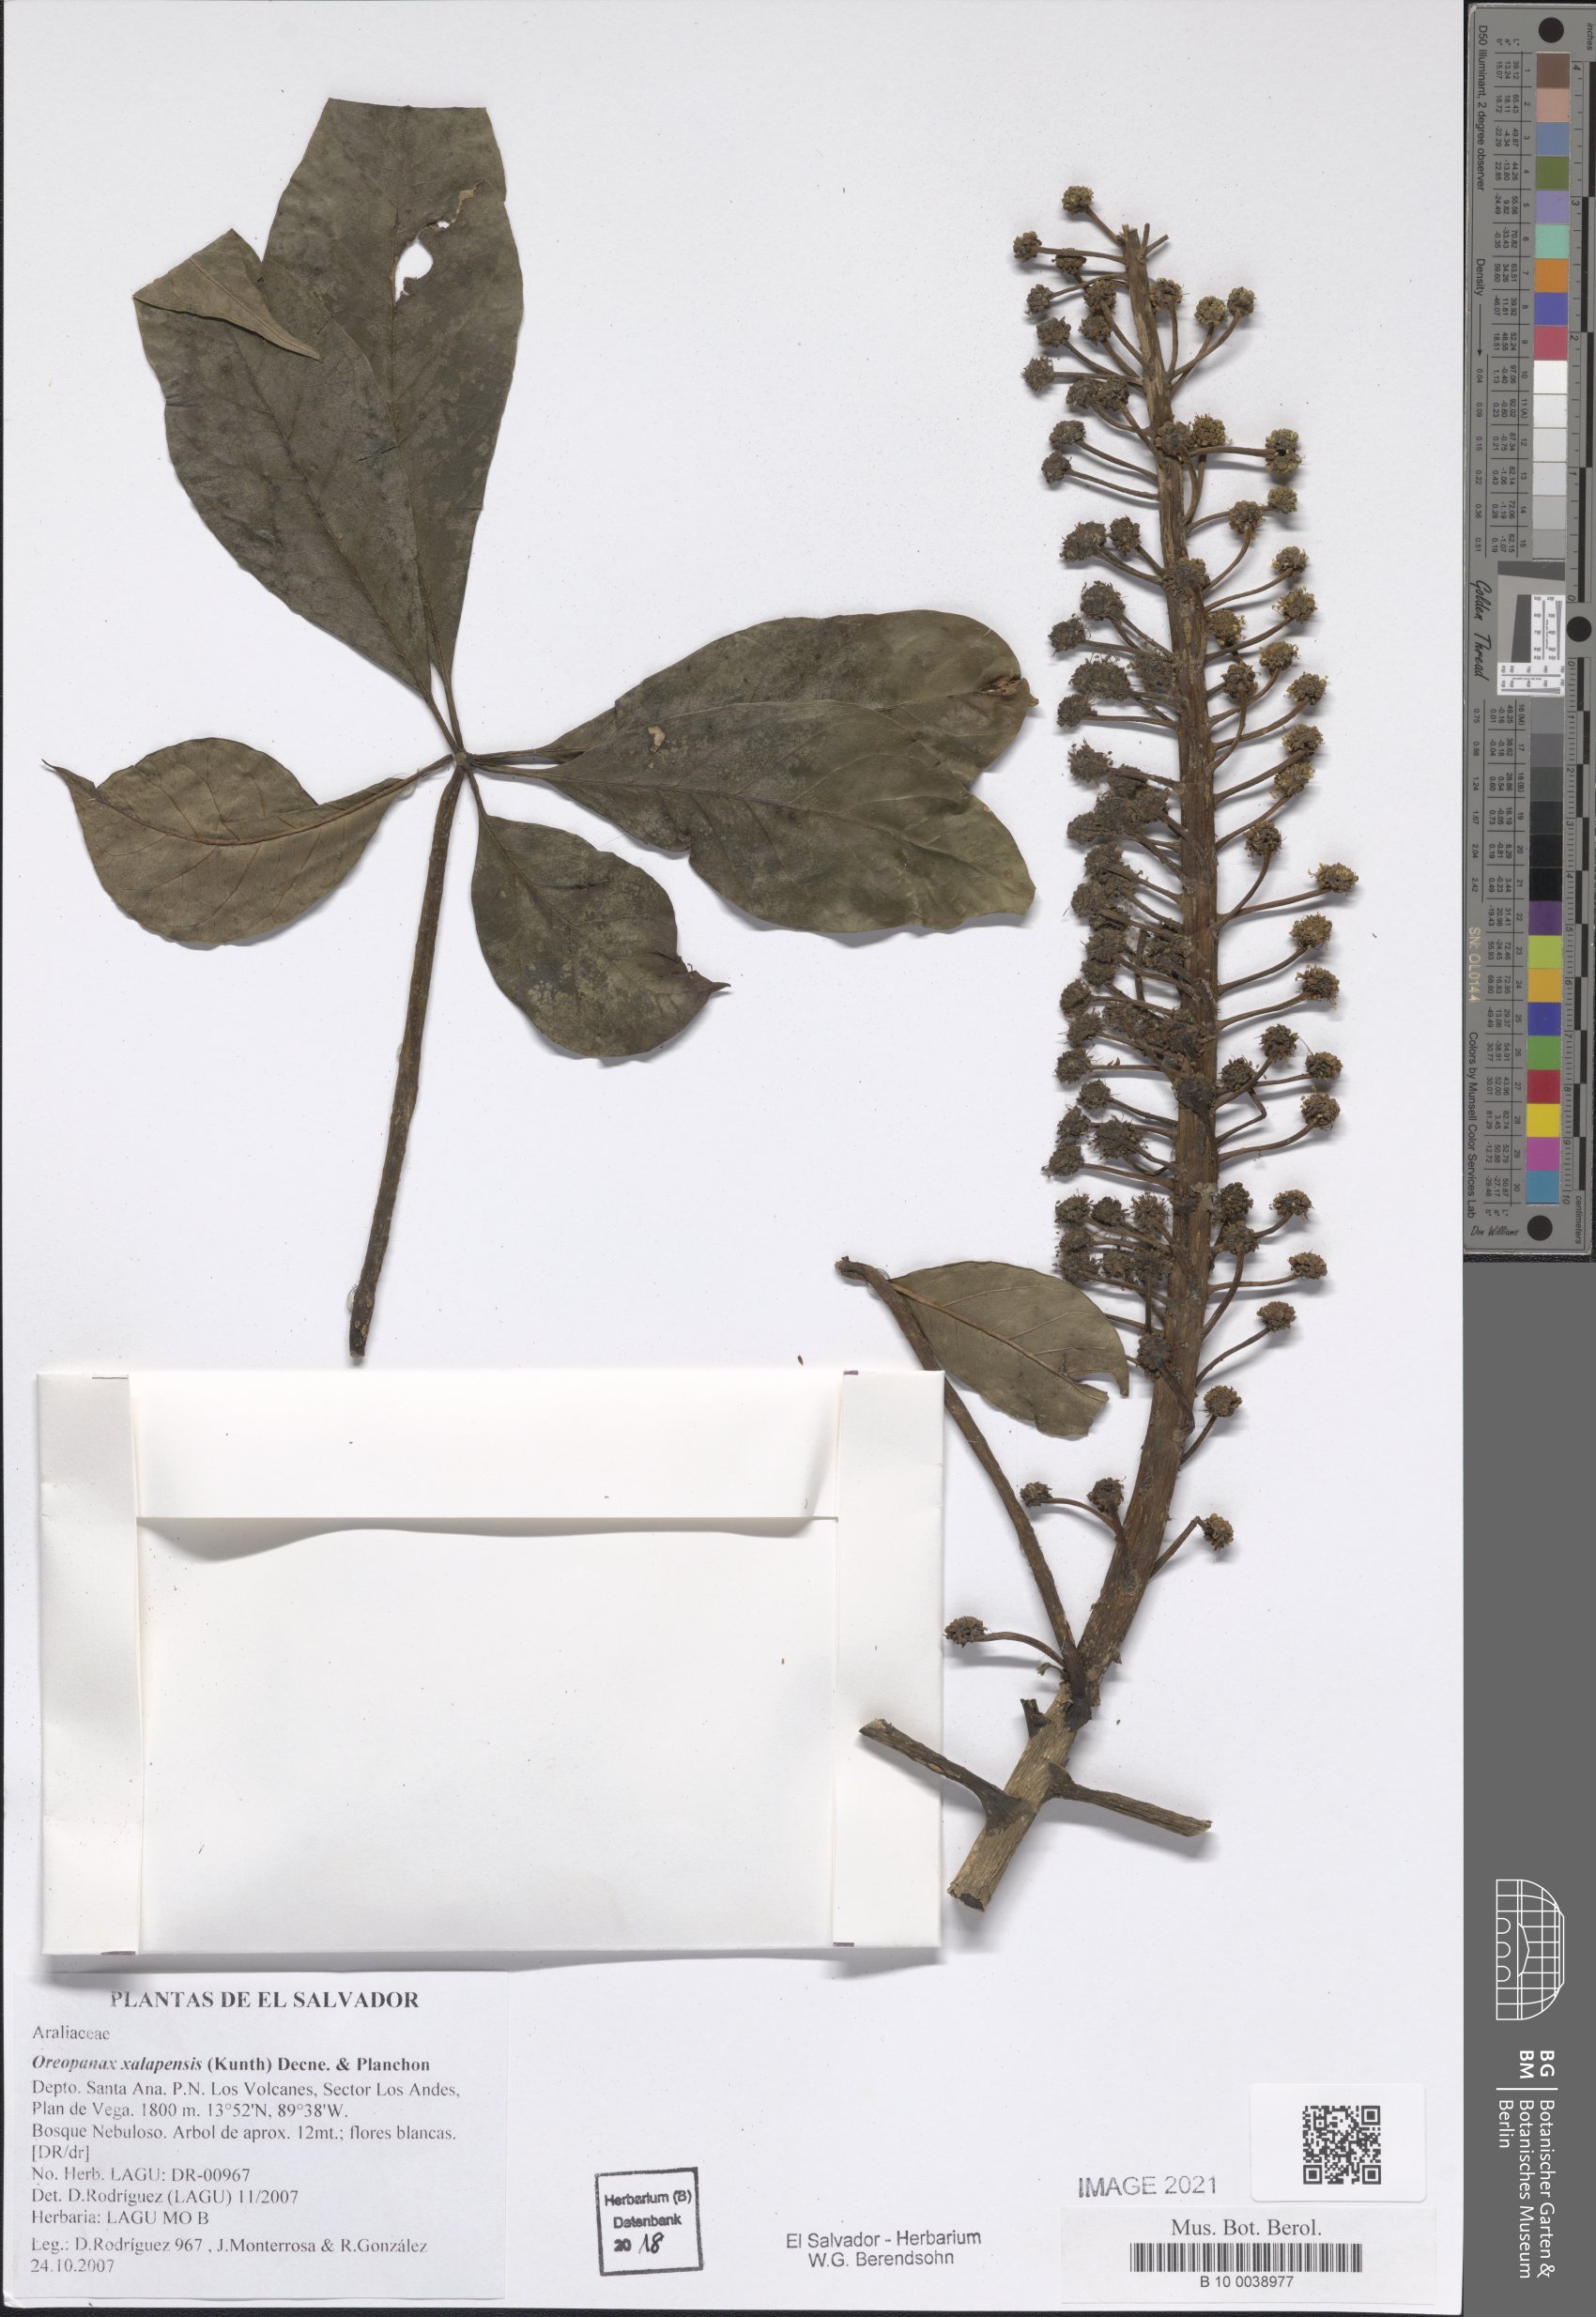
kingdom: Plantae
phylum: Tracheophyta
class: Magnoliopsida
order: Apiales
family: Araliaceae
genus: Oreopanax
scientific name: Oreopanax xalapensis
